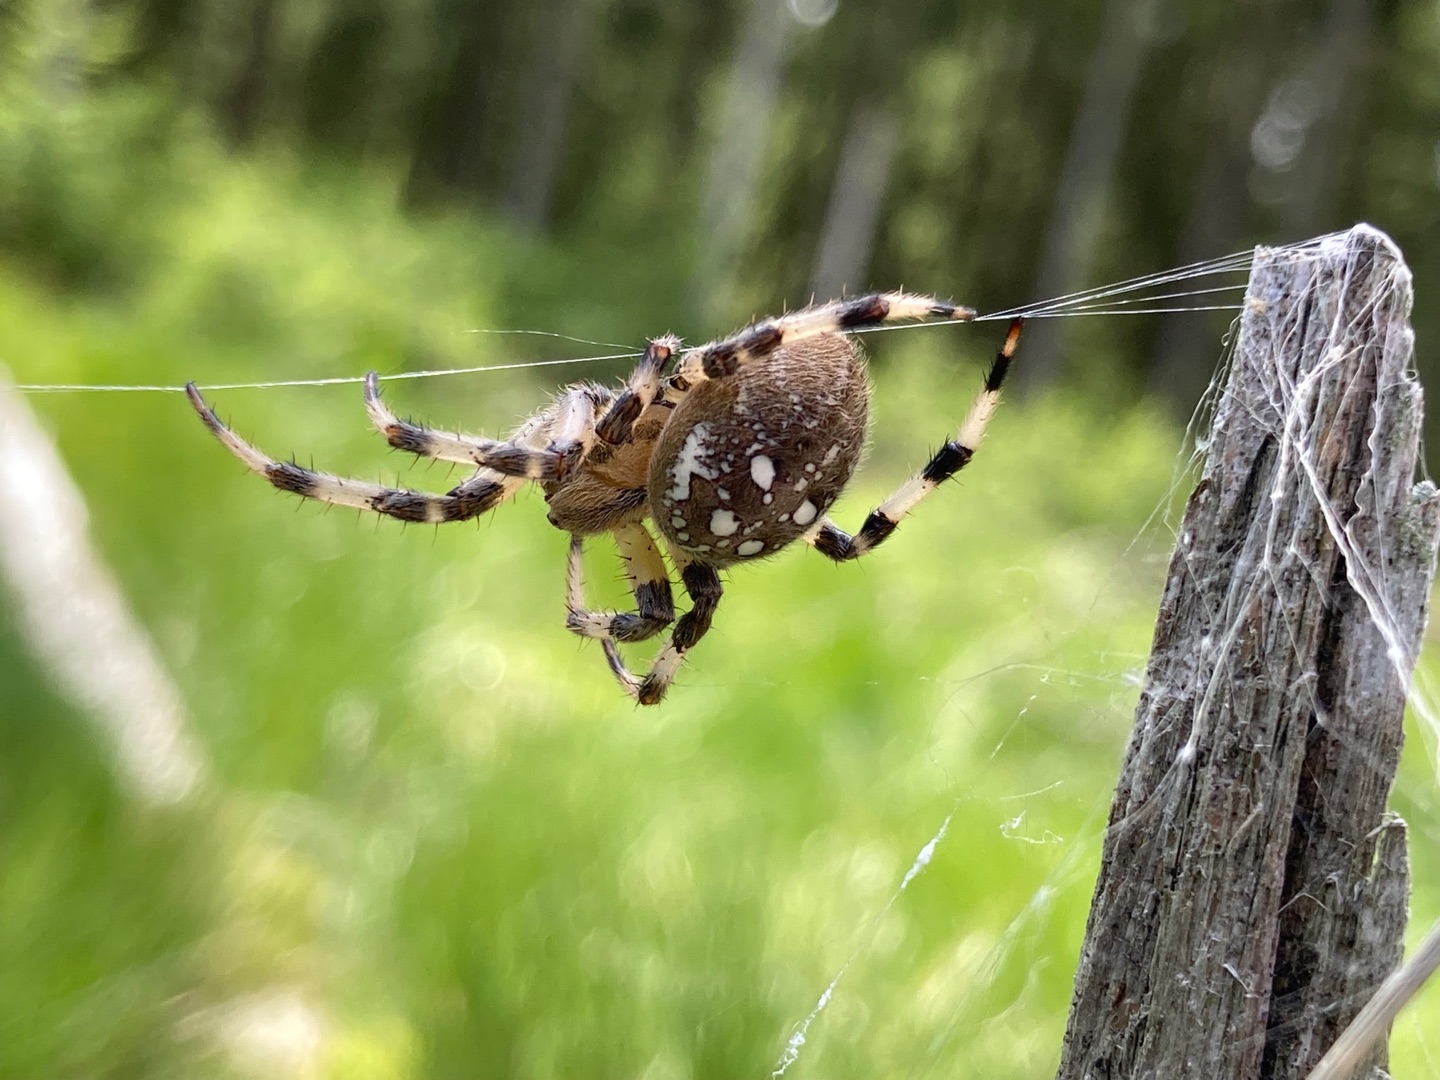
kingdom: Animalia
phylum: Arthropoda
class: Arachnida
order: Araneae
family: Araneidae
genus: Araneus
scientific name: Araneus quadratus
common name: Kvadratedderkop
